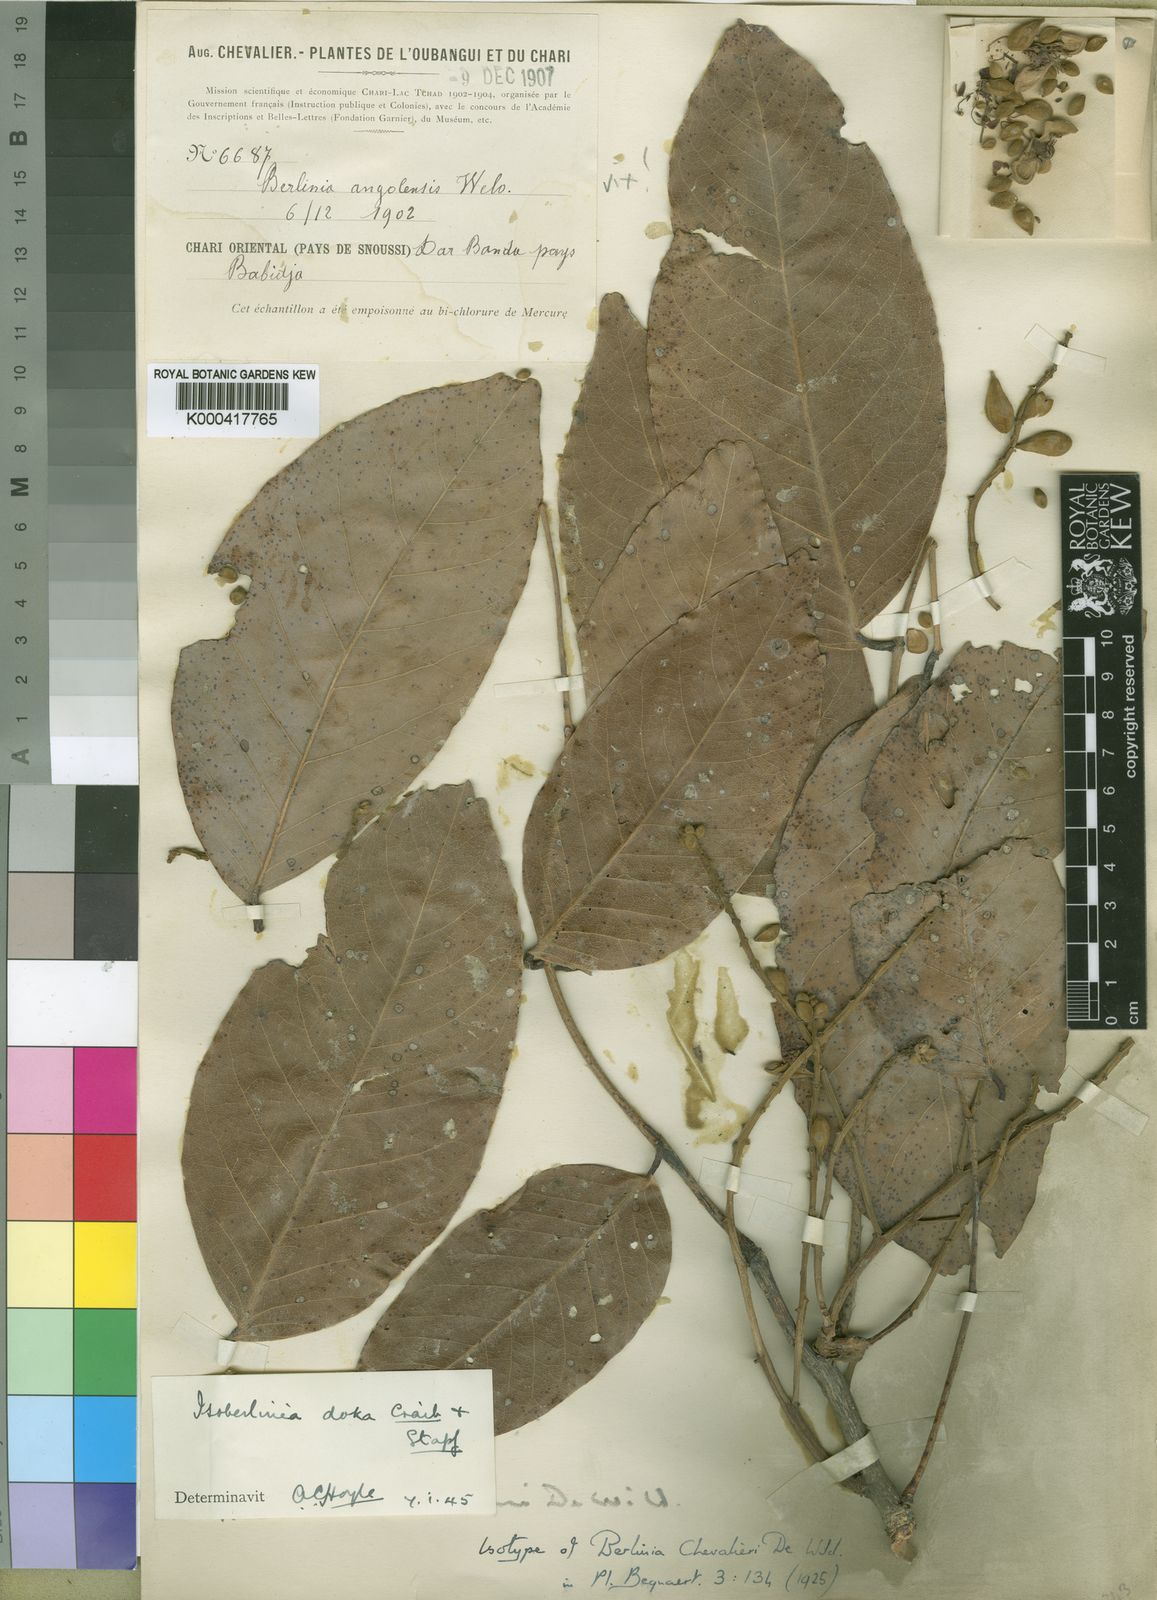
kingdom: Plantae
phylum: Tracheophyta
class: Magnoliopsida
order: Fabales
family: Fabaceae
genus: Isoberlinia
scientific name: Isoberlinia doka
